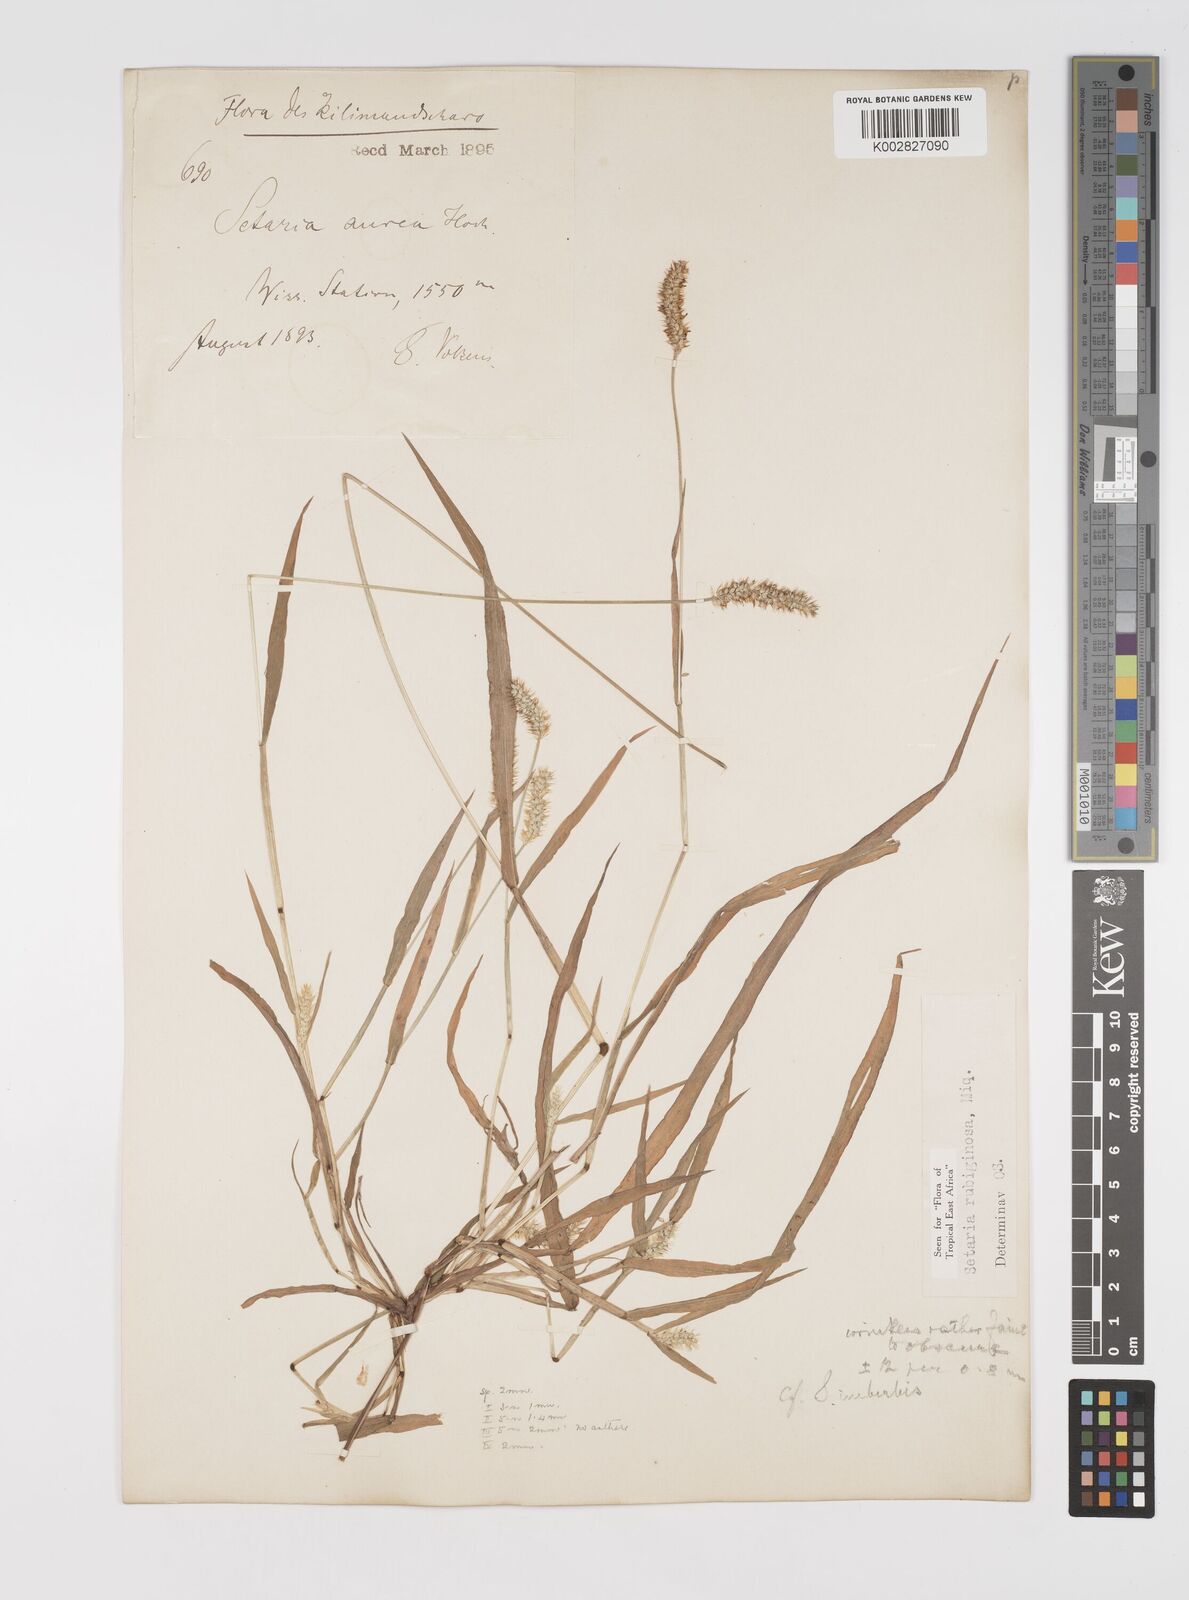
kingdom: Plantae
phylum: Tracheophyta
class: Liliopsida
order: Poales
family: Poaceae
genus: Setaria
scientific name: Setaria pumila
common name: Yellow bristle-grass
